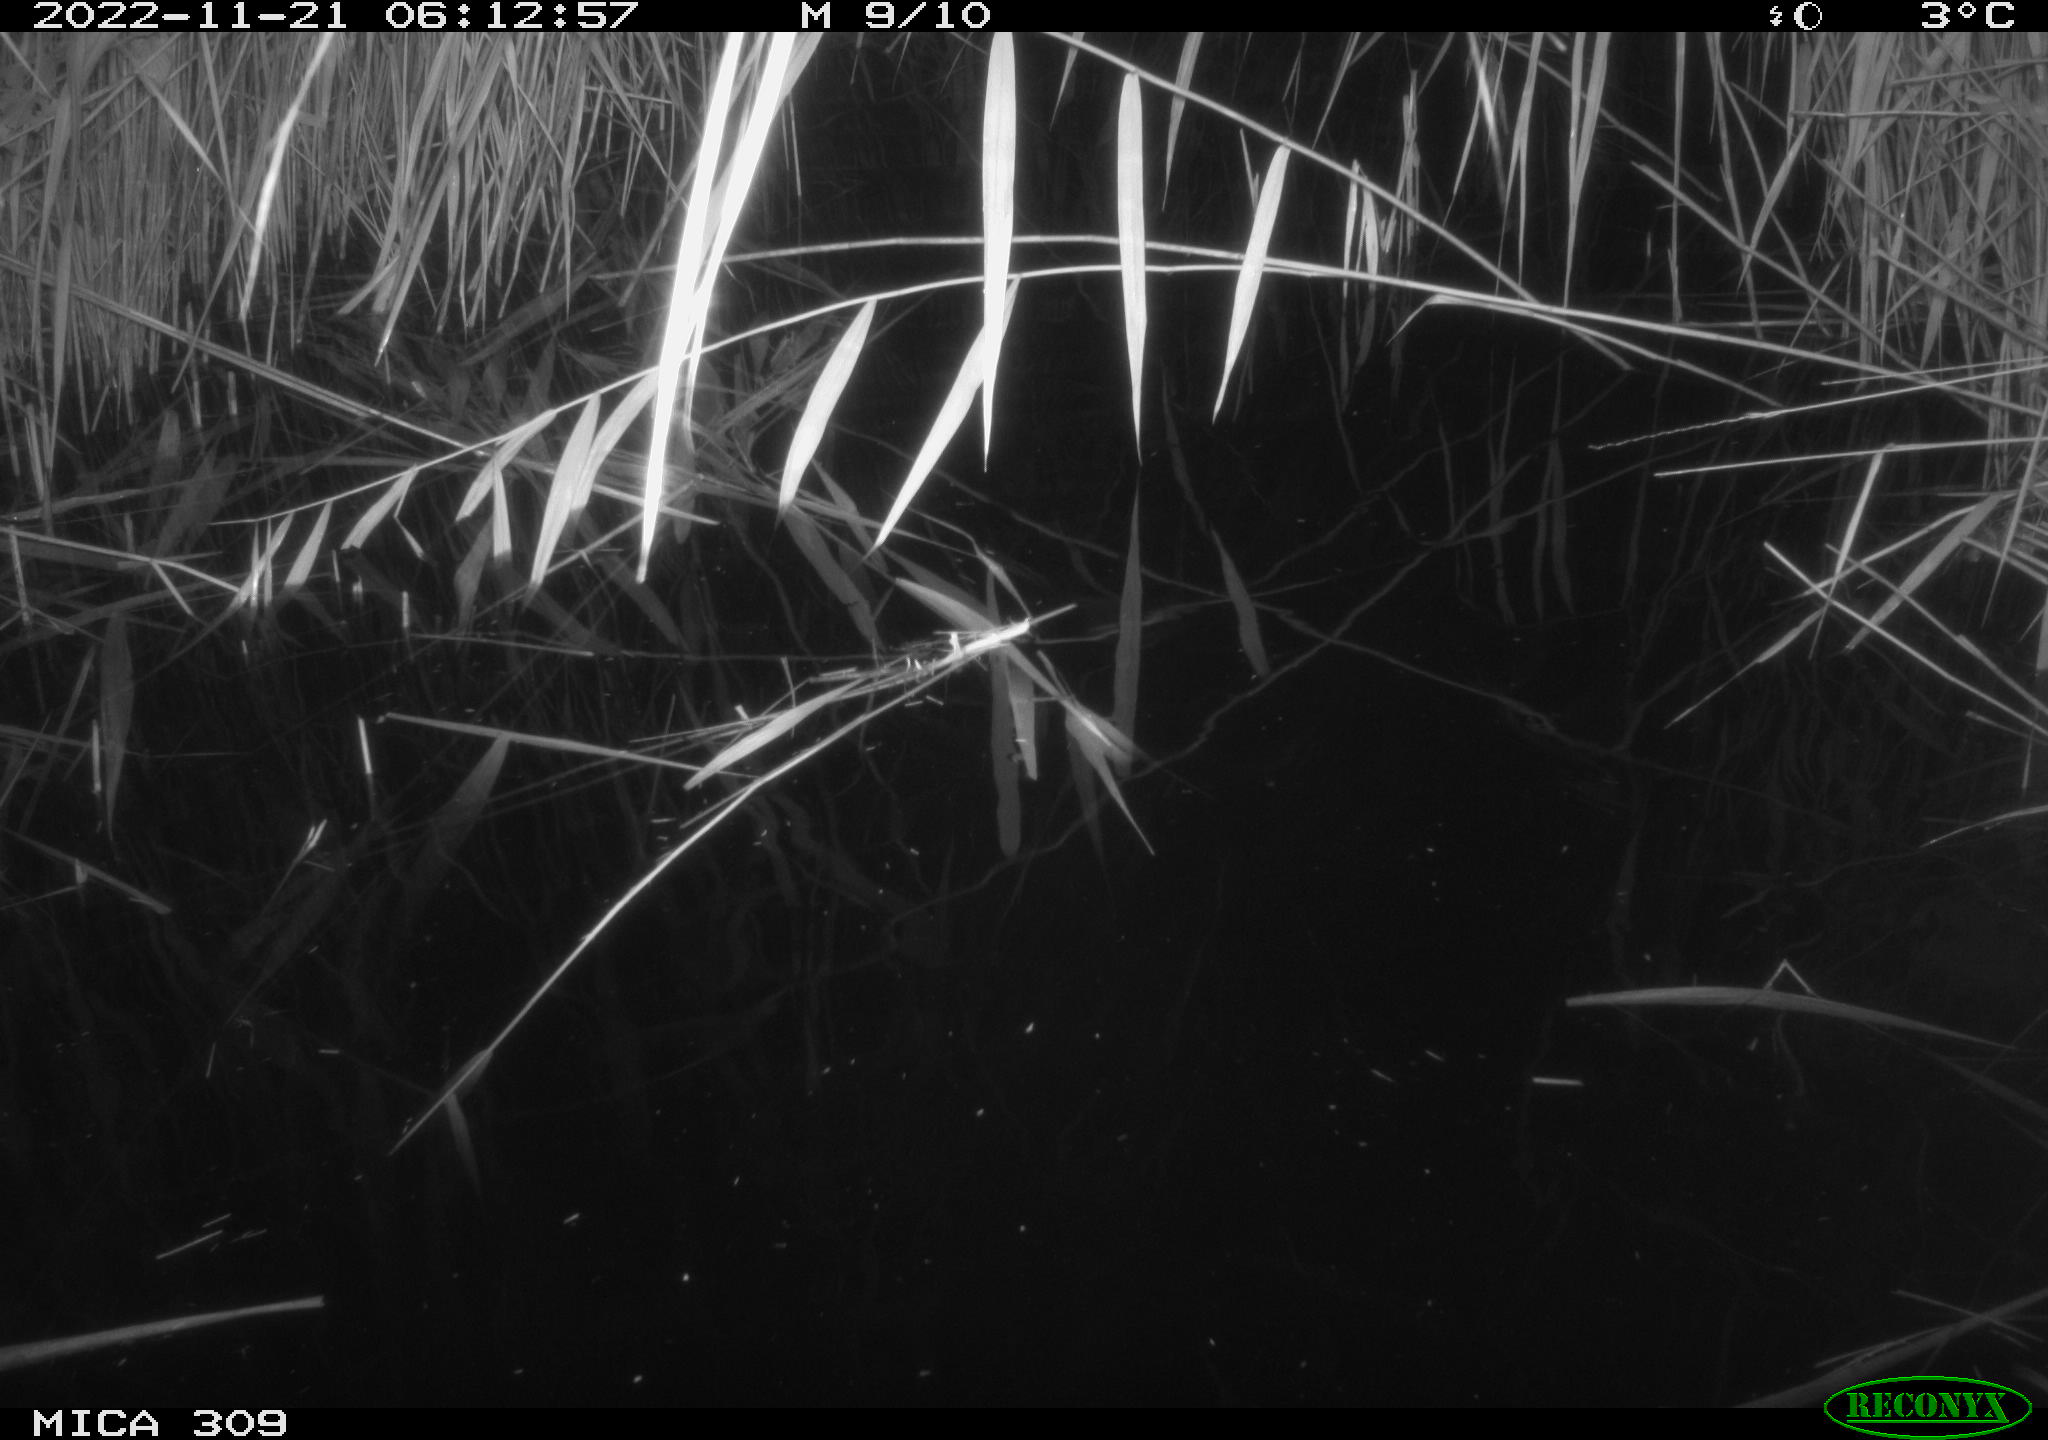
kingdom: Animalia
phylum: Chordata
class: Mammalia
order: Rodentia
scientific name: Rodentia
